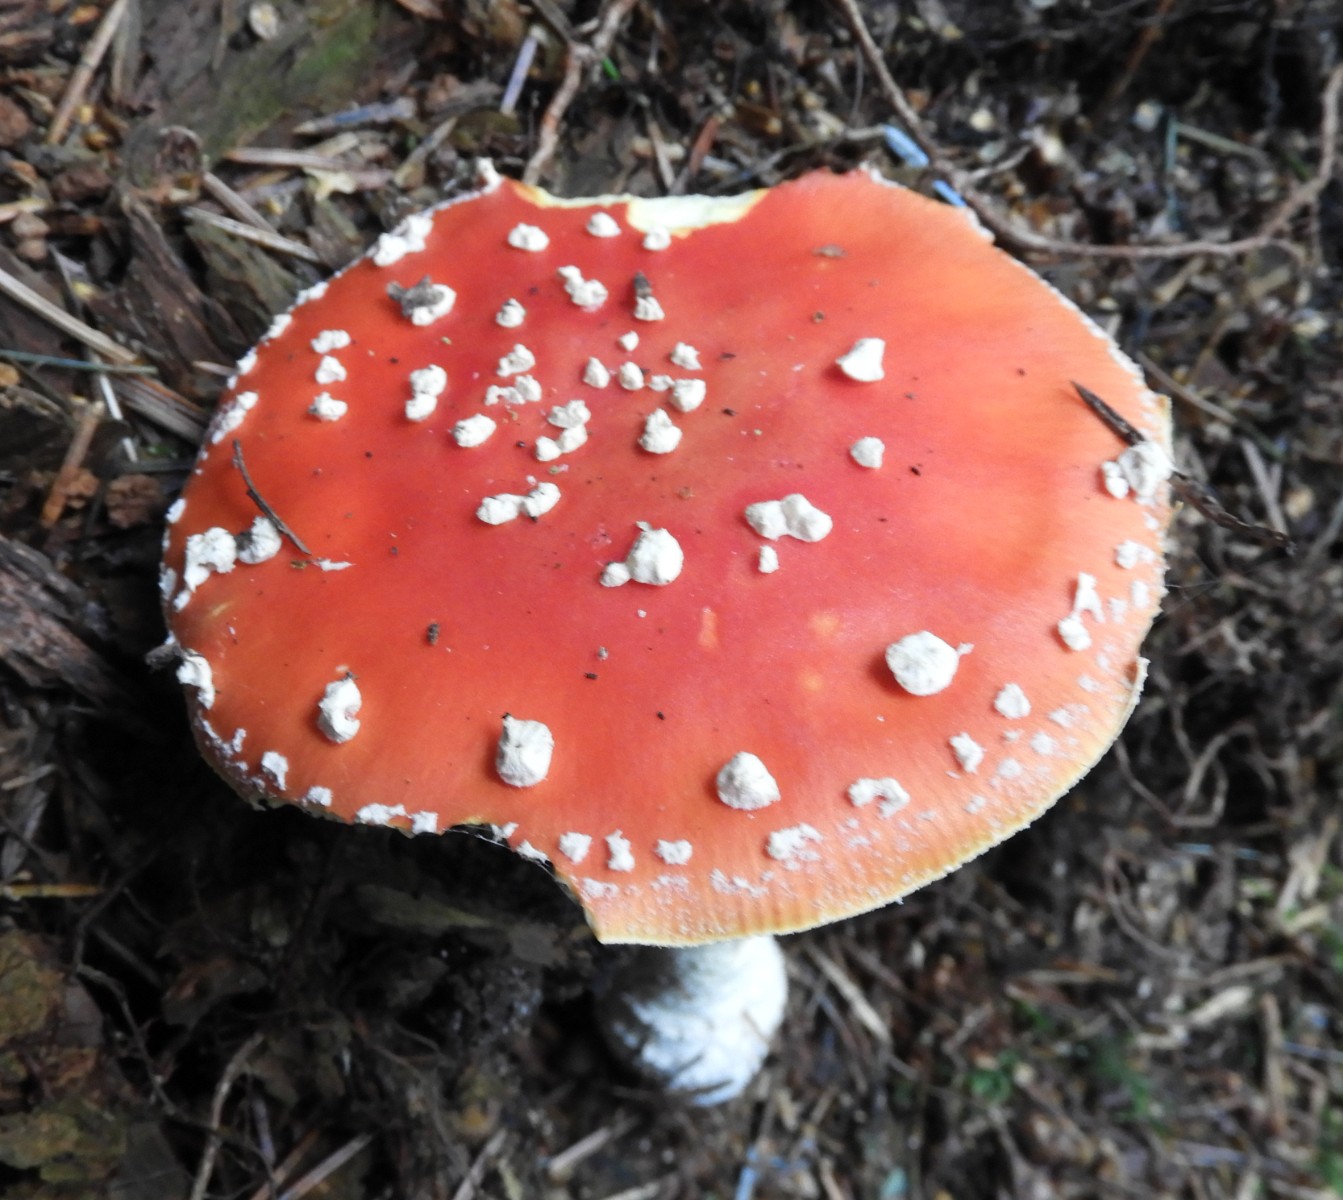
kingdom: Fungi
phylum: Basidiomycota
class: Agaricomycetes
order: Agaricales
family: Amanitaceae
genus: Amanita
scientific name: Amanita muscaria
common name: rød fluesvamp
